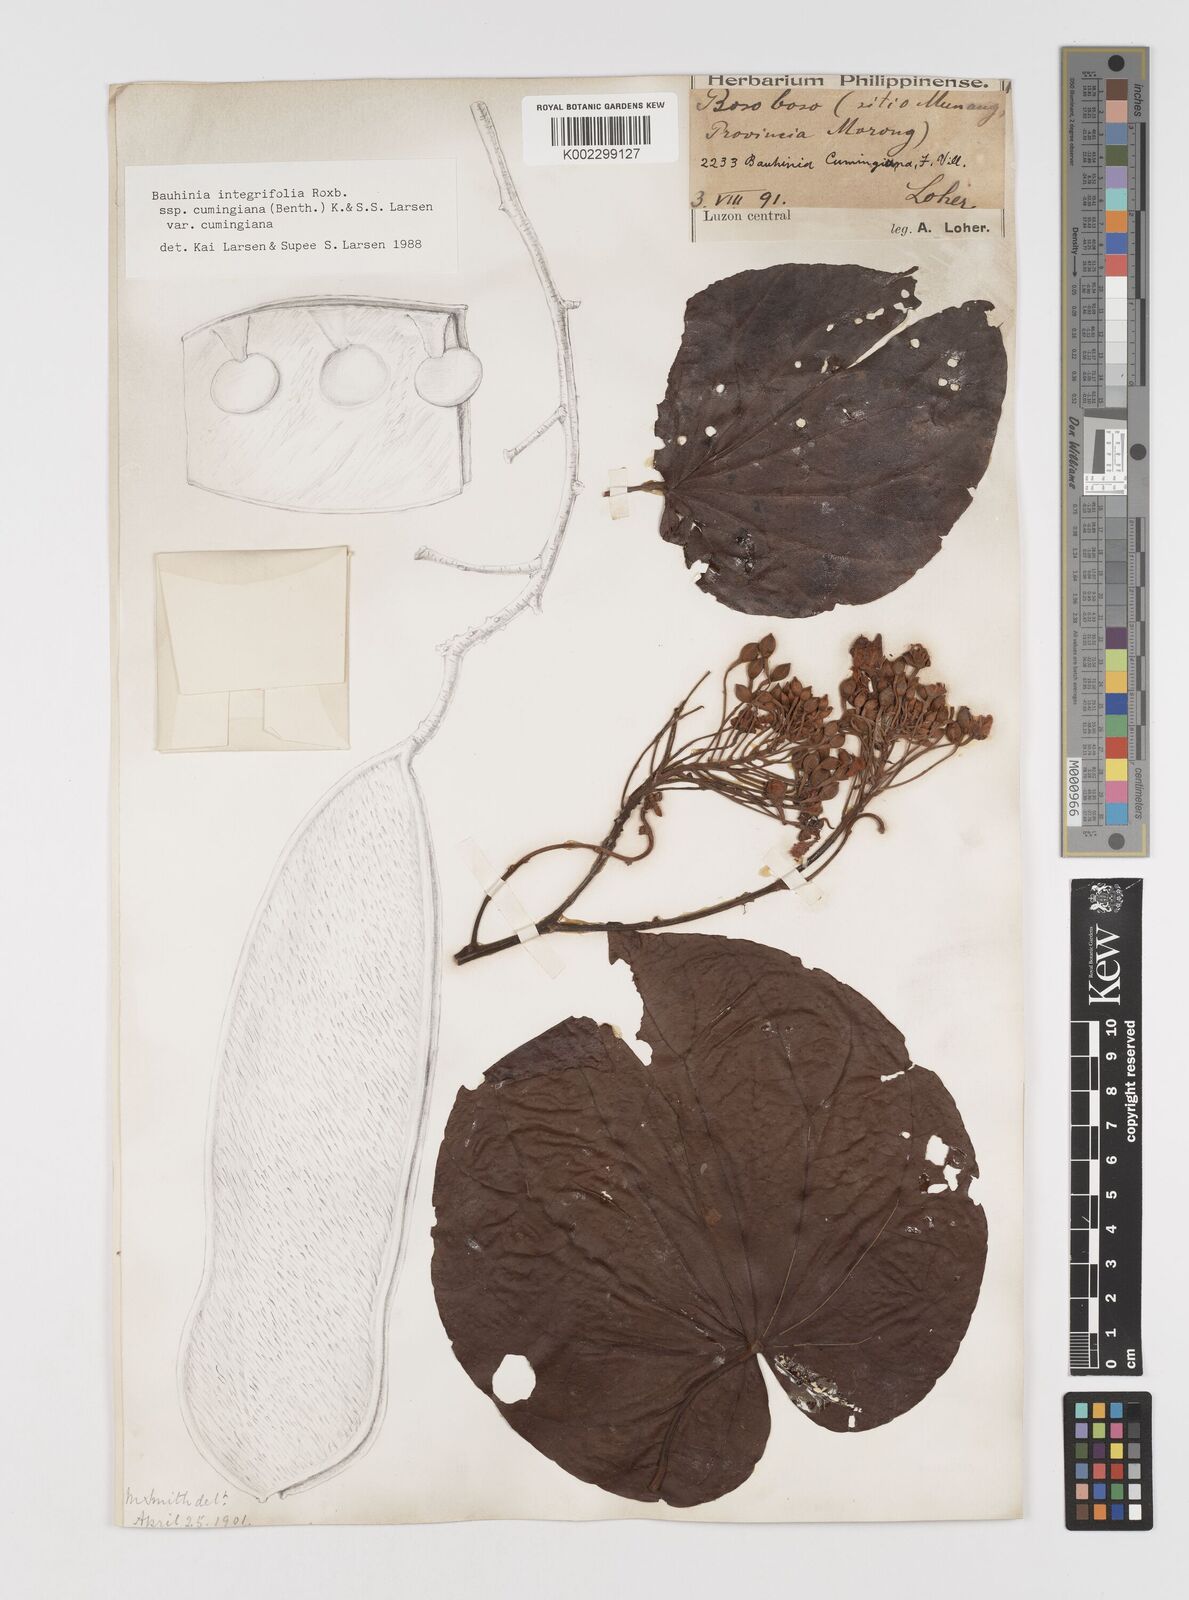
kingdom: Plantae
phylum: Tracheophyta
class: Magnoliopsida
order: Fabales
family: Fabaceae
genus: Phanera
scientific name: Phanera integrifolia
